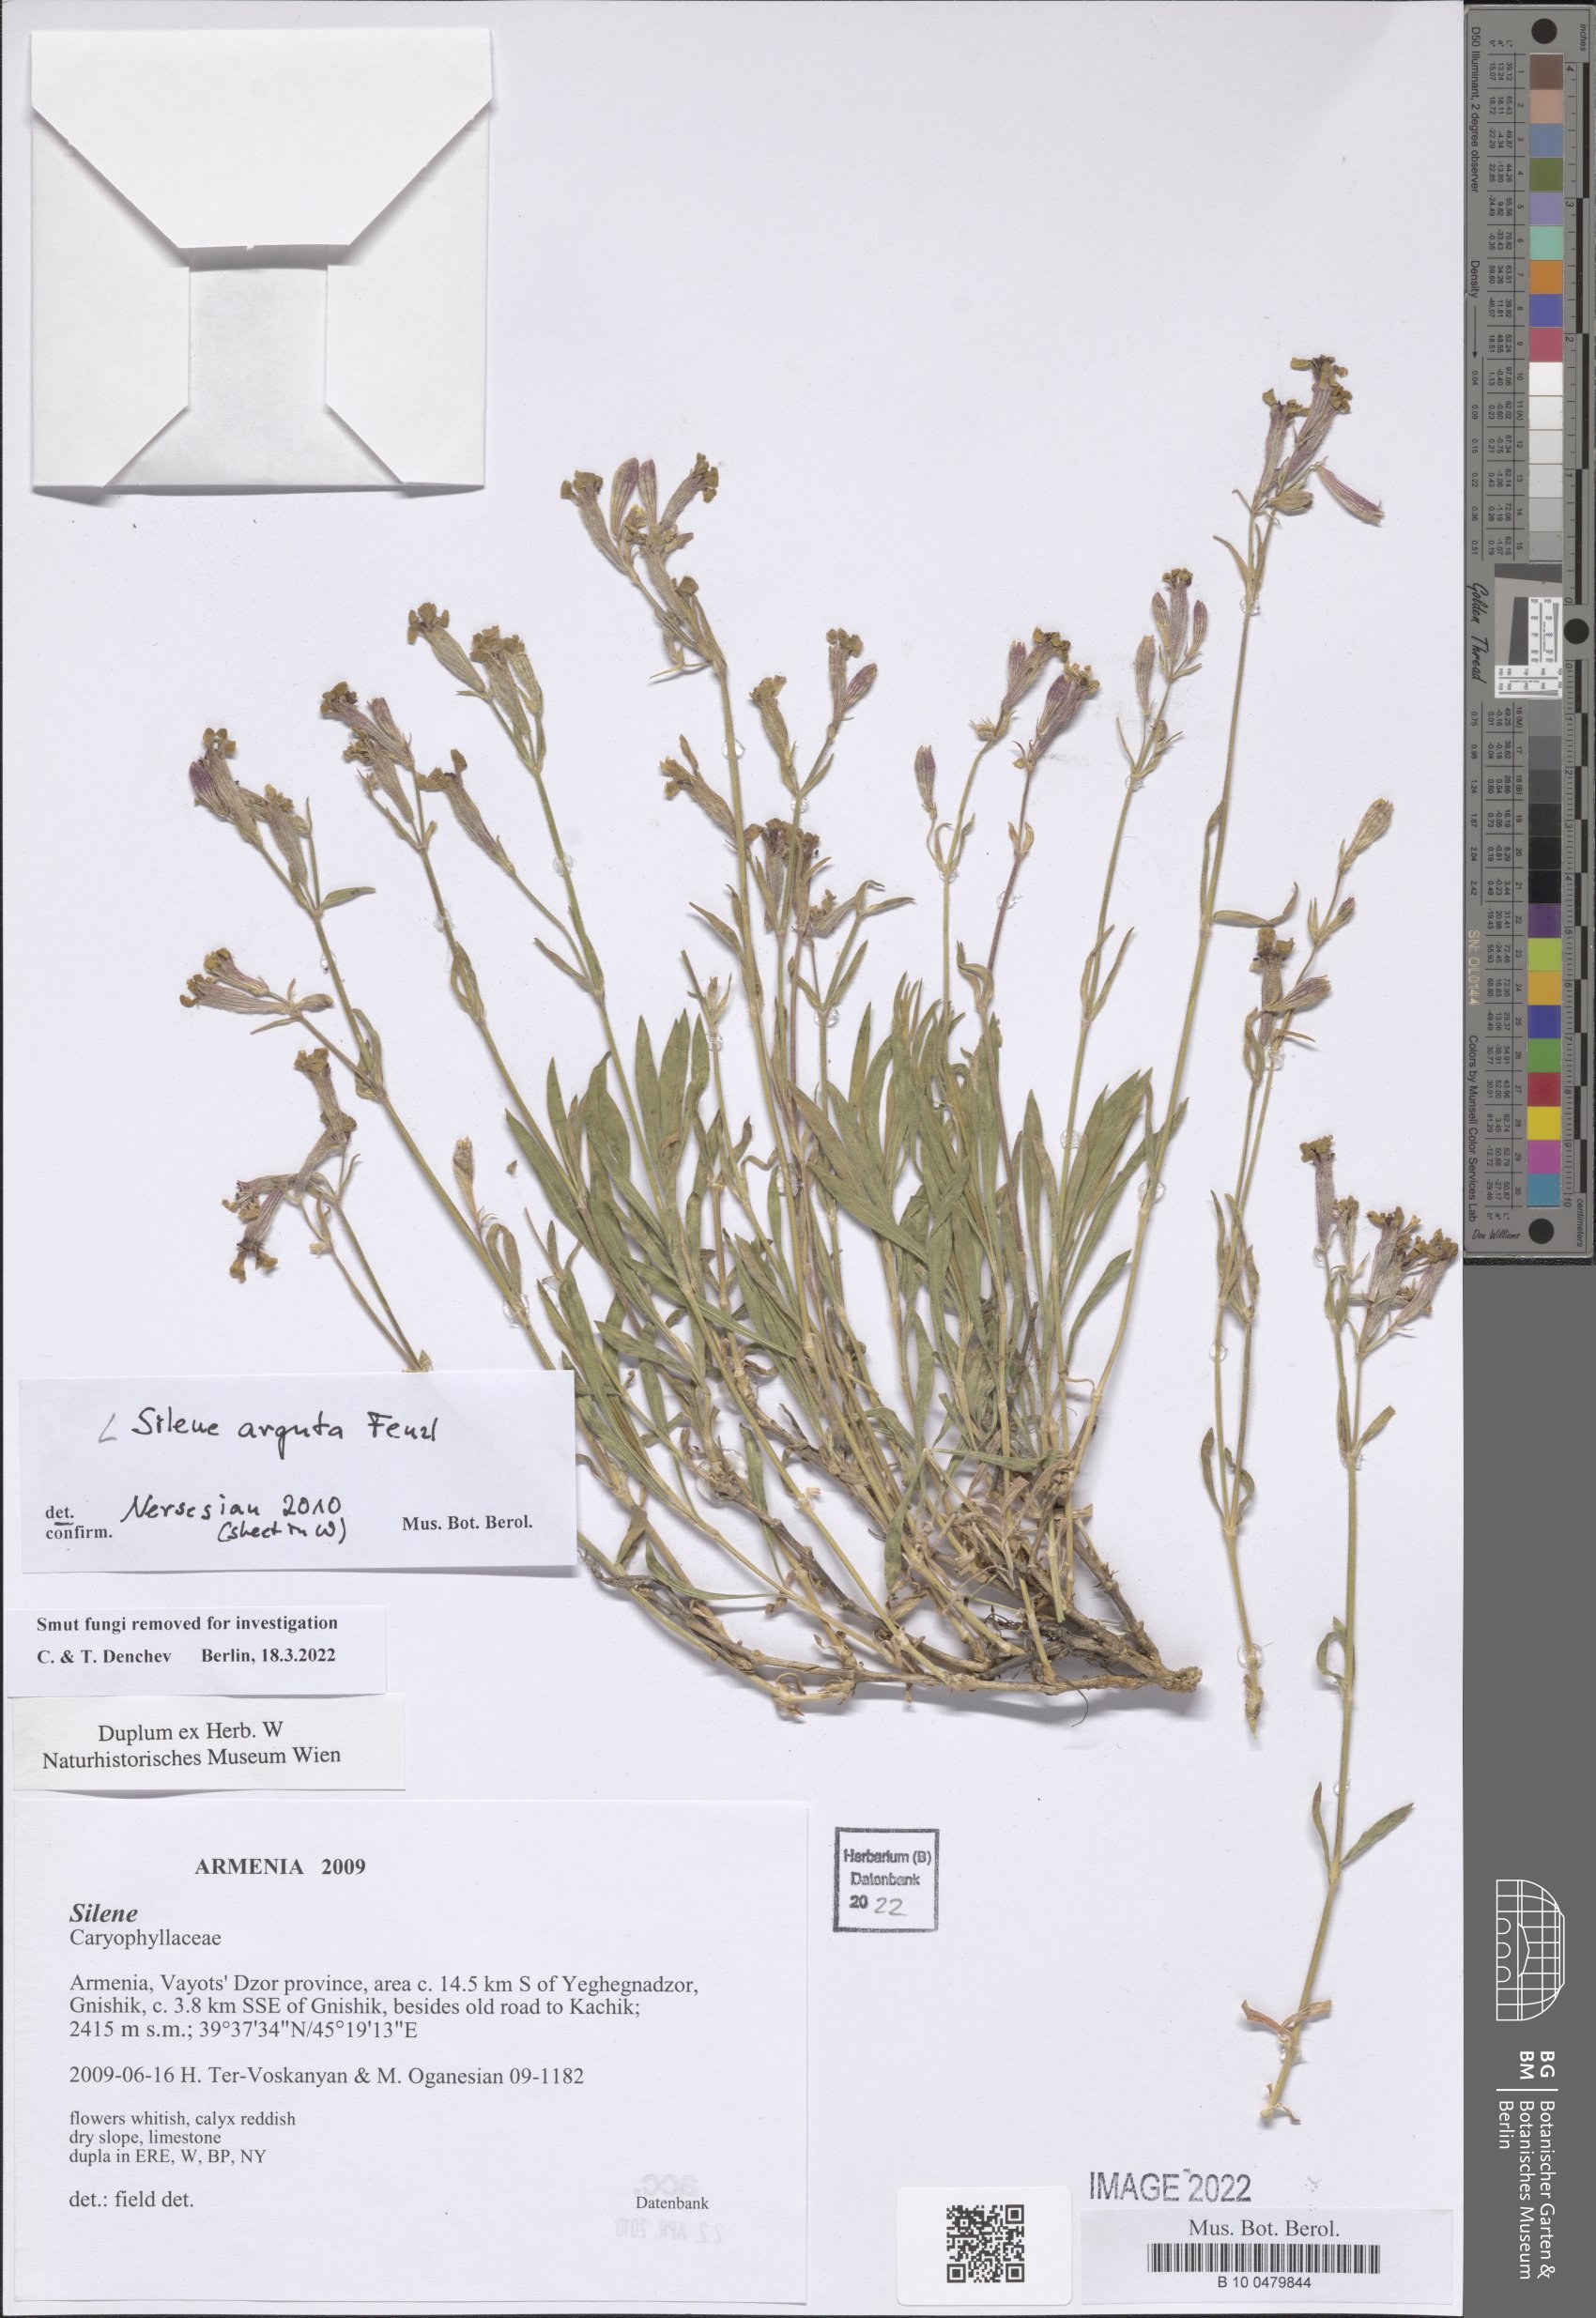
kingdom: Plantae
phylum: Tracheophyta
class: Magnoliopsida
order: Caryophyllales
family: Caryophyllaceae
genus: Silene
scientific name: Silene arguta
